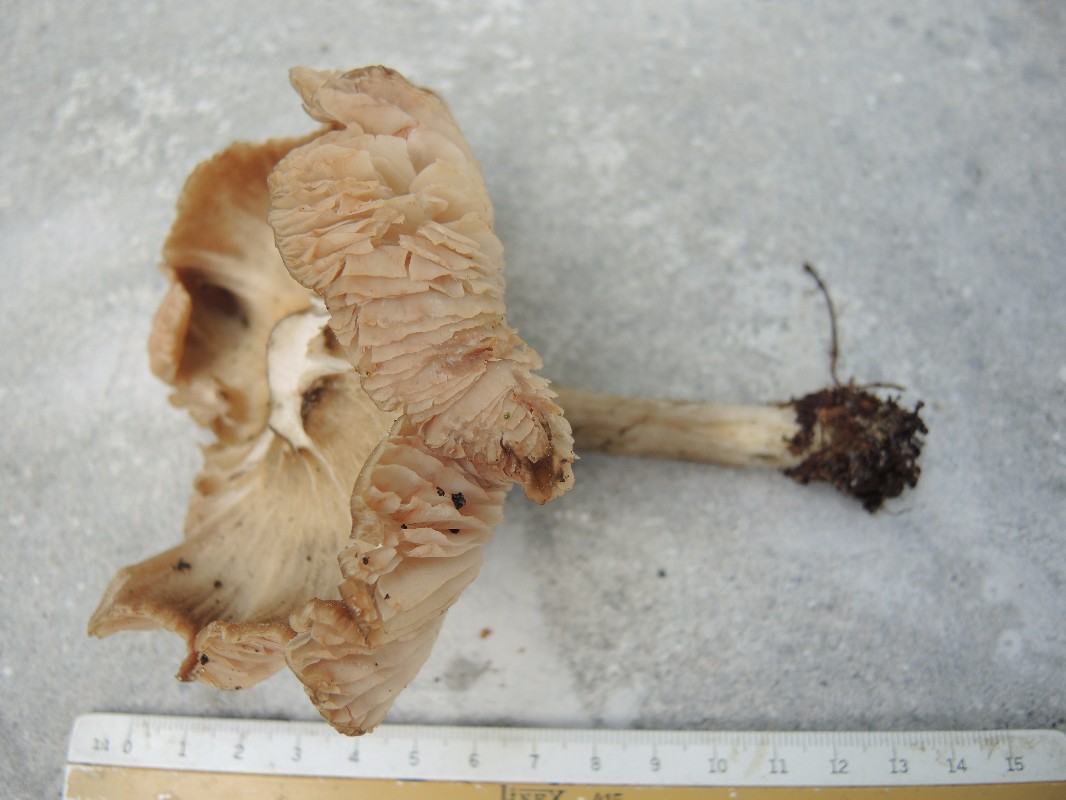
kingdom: Fungi
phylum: Basidiomycota
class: Agaricomycetes
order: Agaricales
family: Entolomataceae
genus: Entoloma
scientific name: Entoloma clypeatum
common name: flammet rødblad
